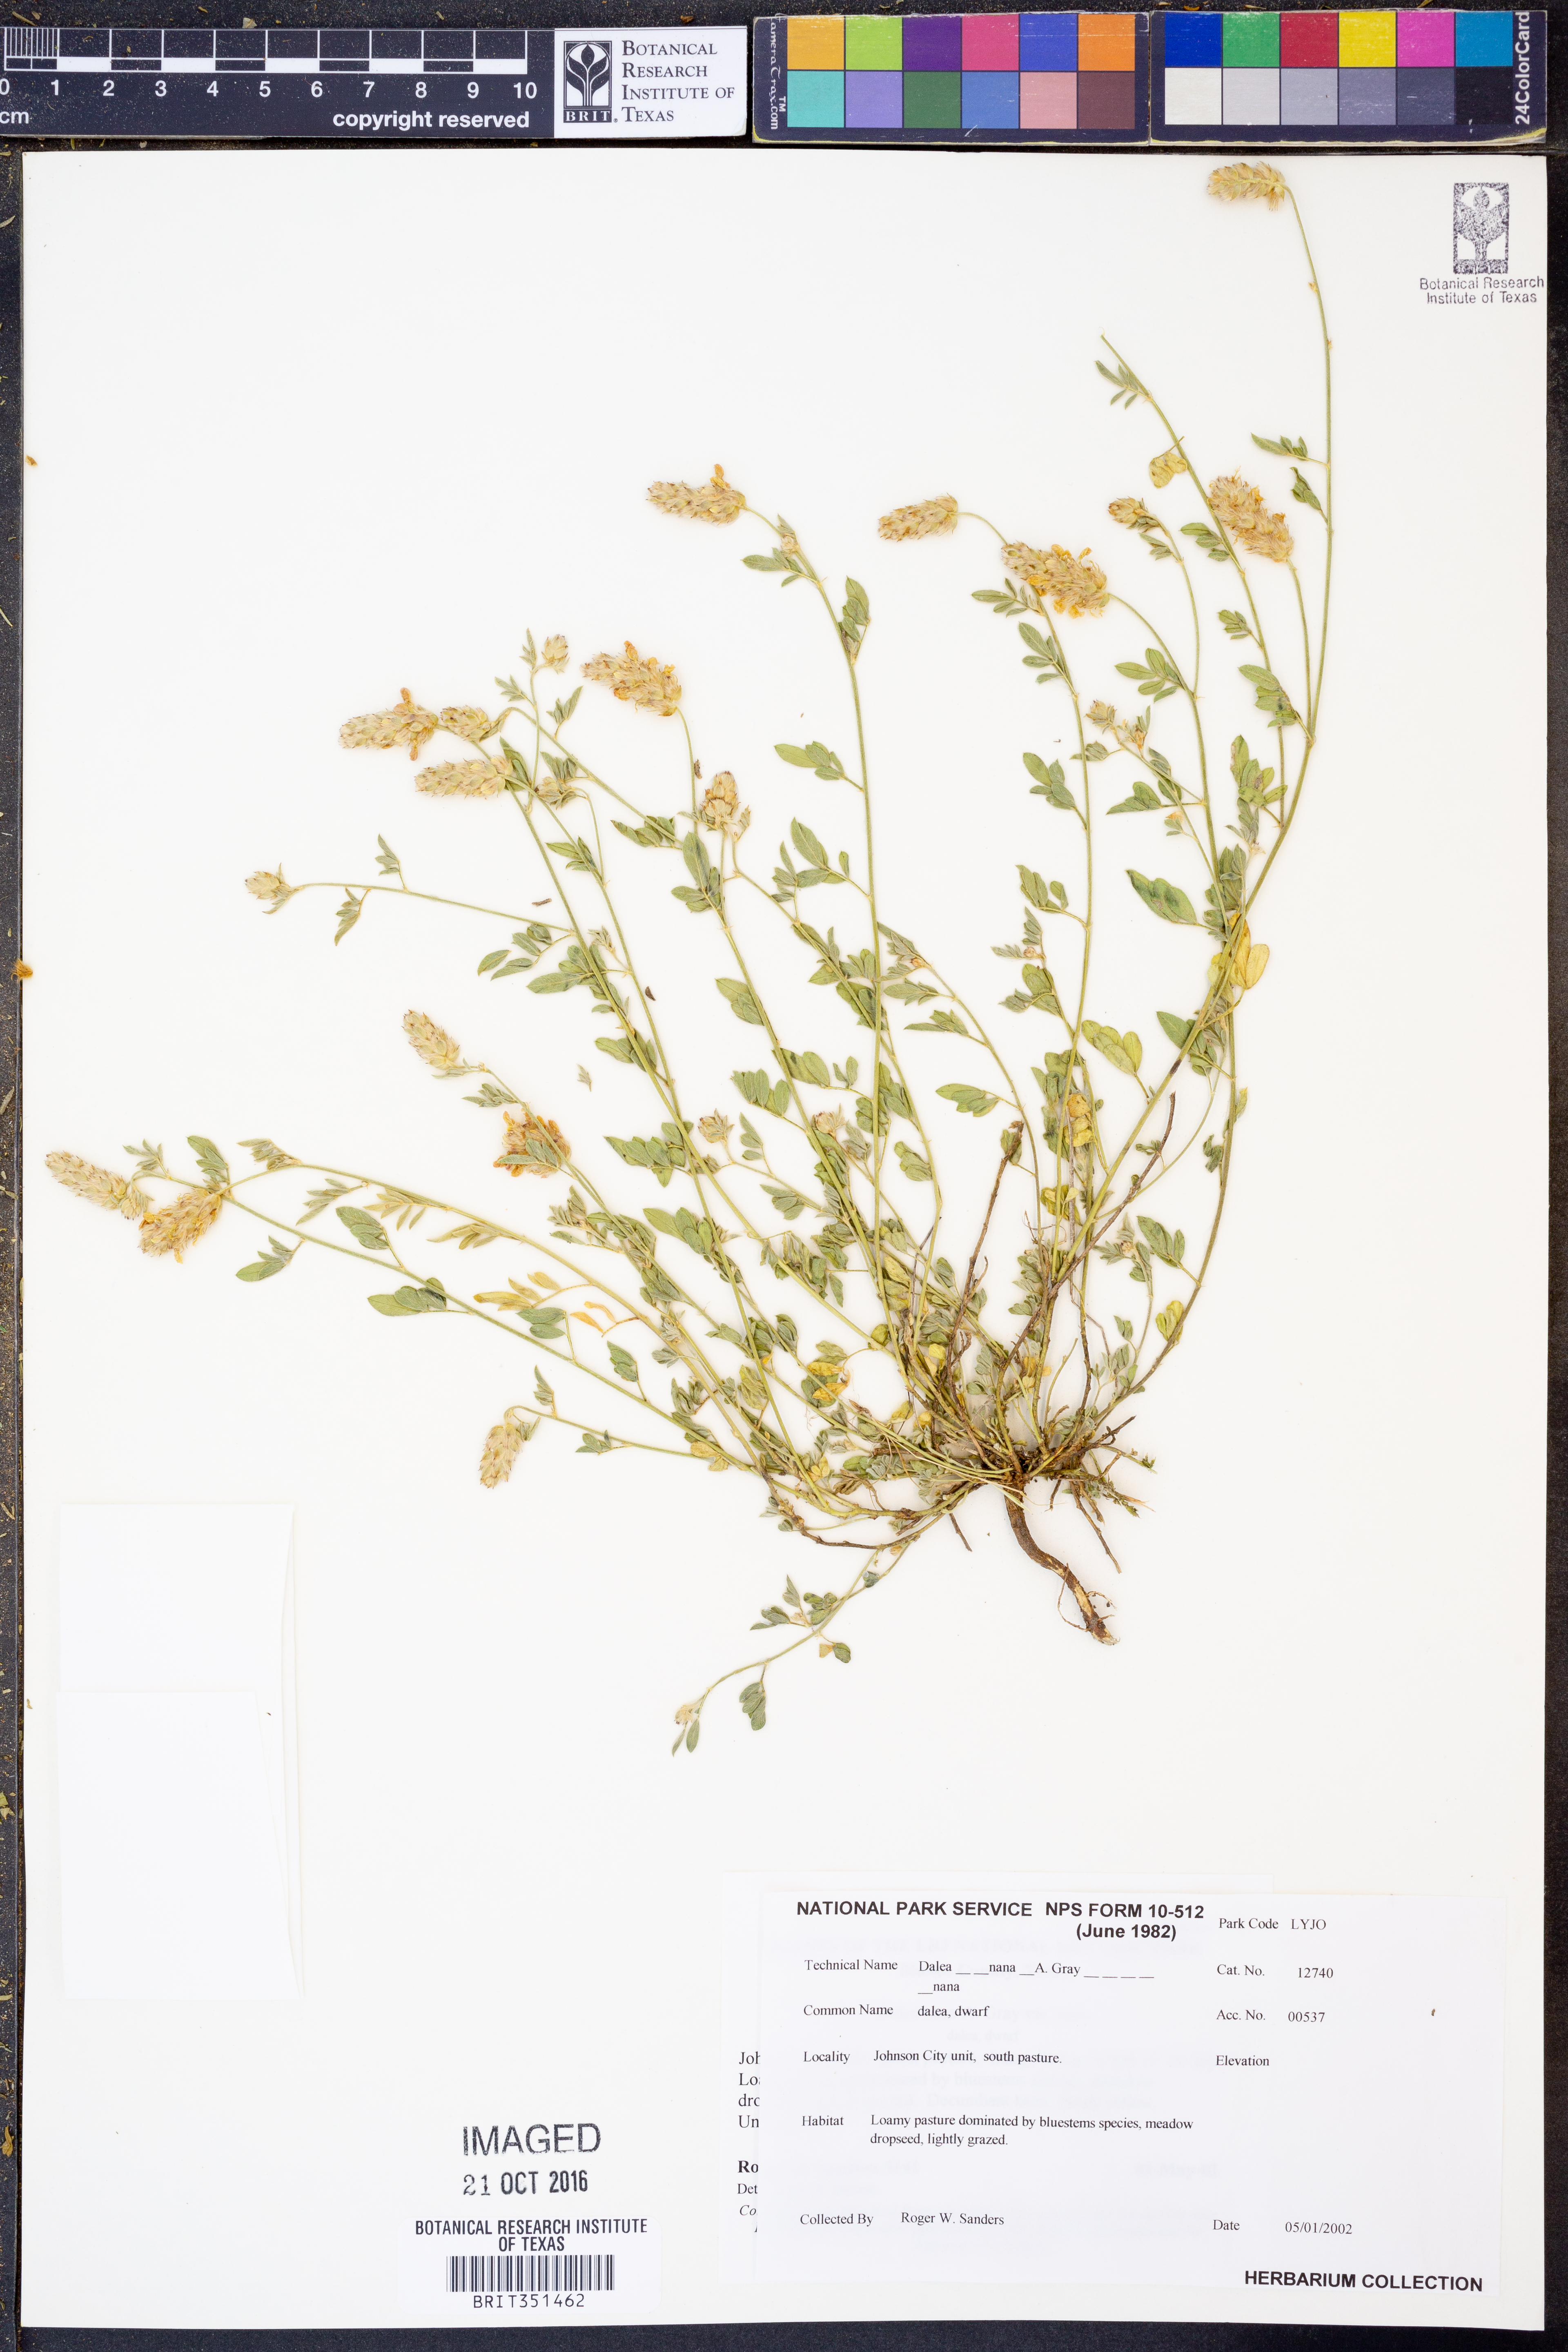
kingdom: Plantae
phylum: Tracheophyta
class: Magnoliopsida
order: Fabales
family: Fabaceae
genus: Dalea
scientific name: Dalea nana
